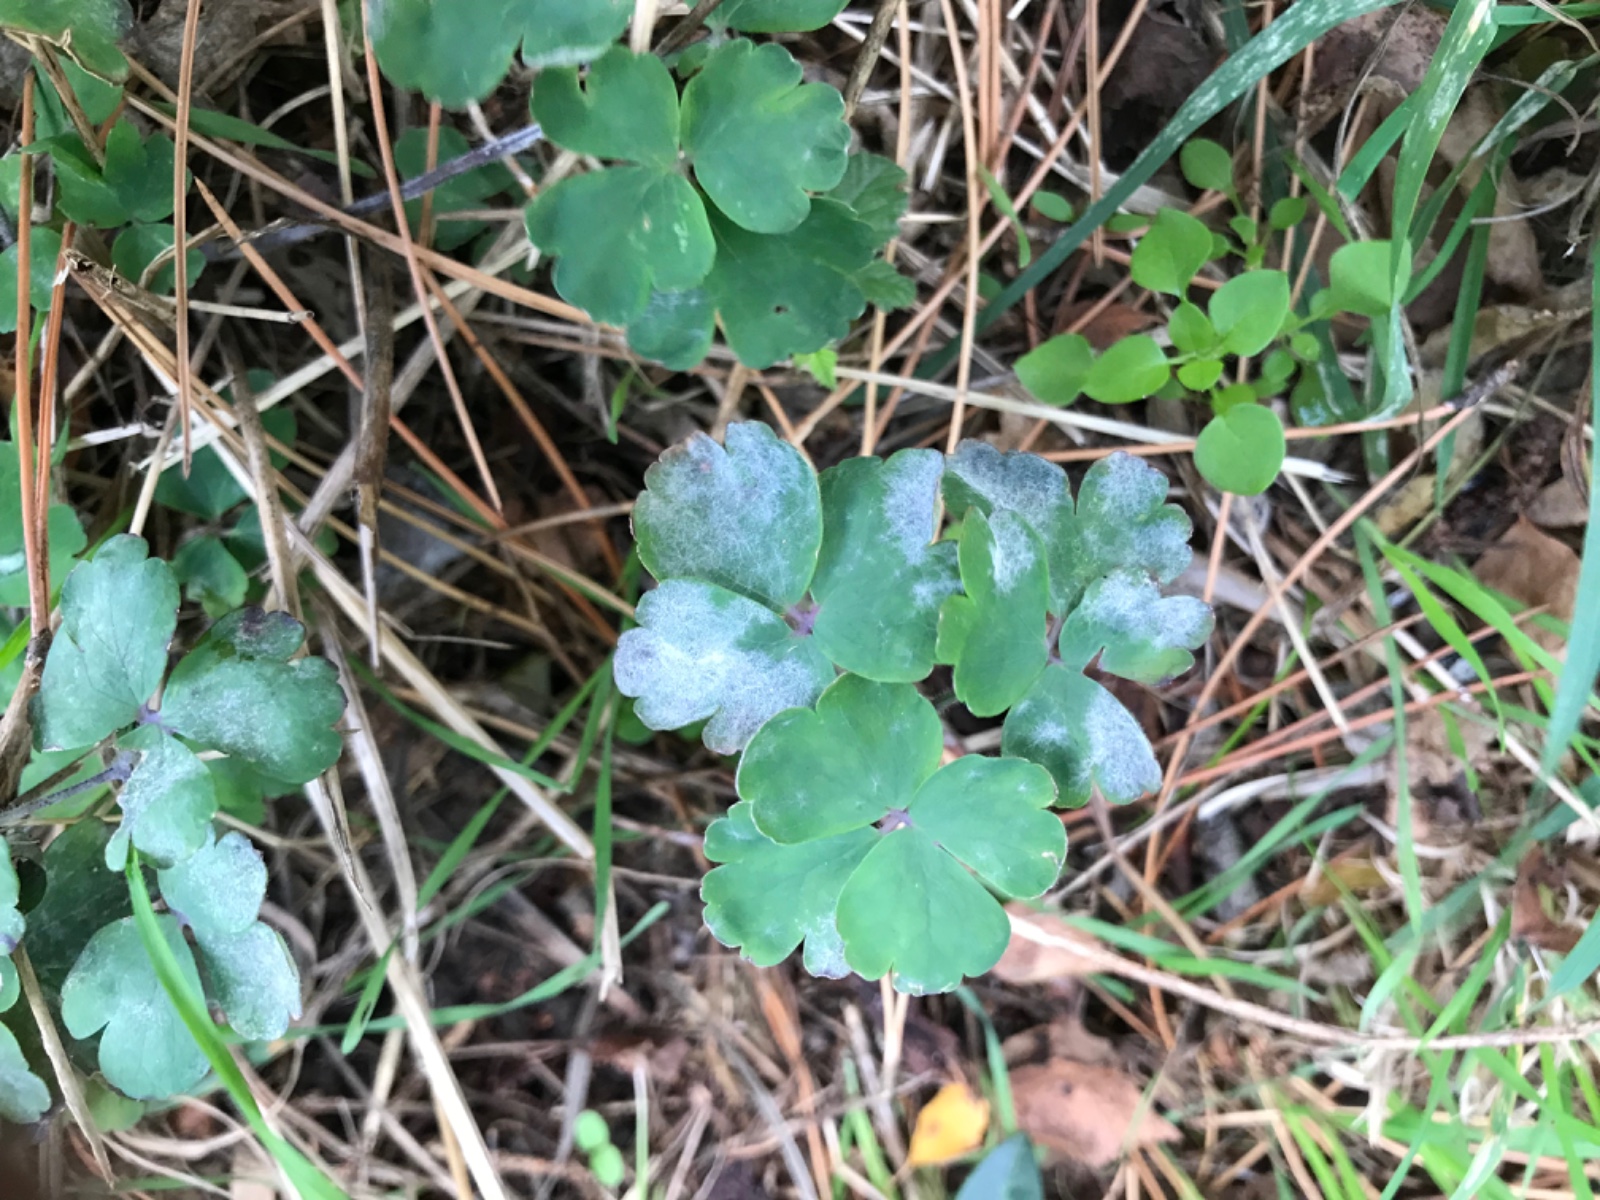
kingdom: Fungi
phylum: Ascomycota
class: Leotiomycetes
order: Helotiales
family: Erysiphaceae
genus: Erysiphe
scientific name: Erysiphe aquilegiae
